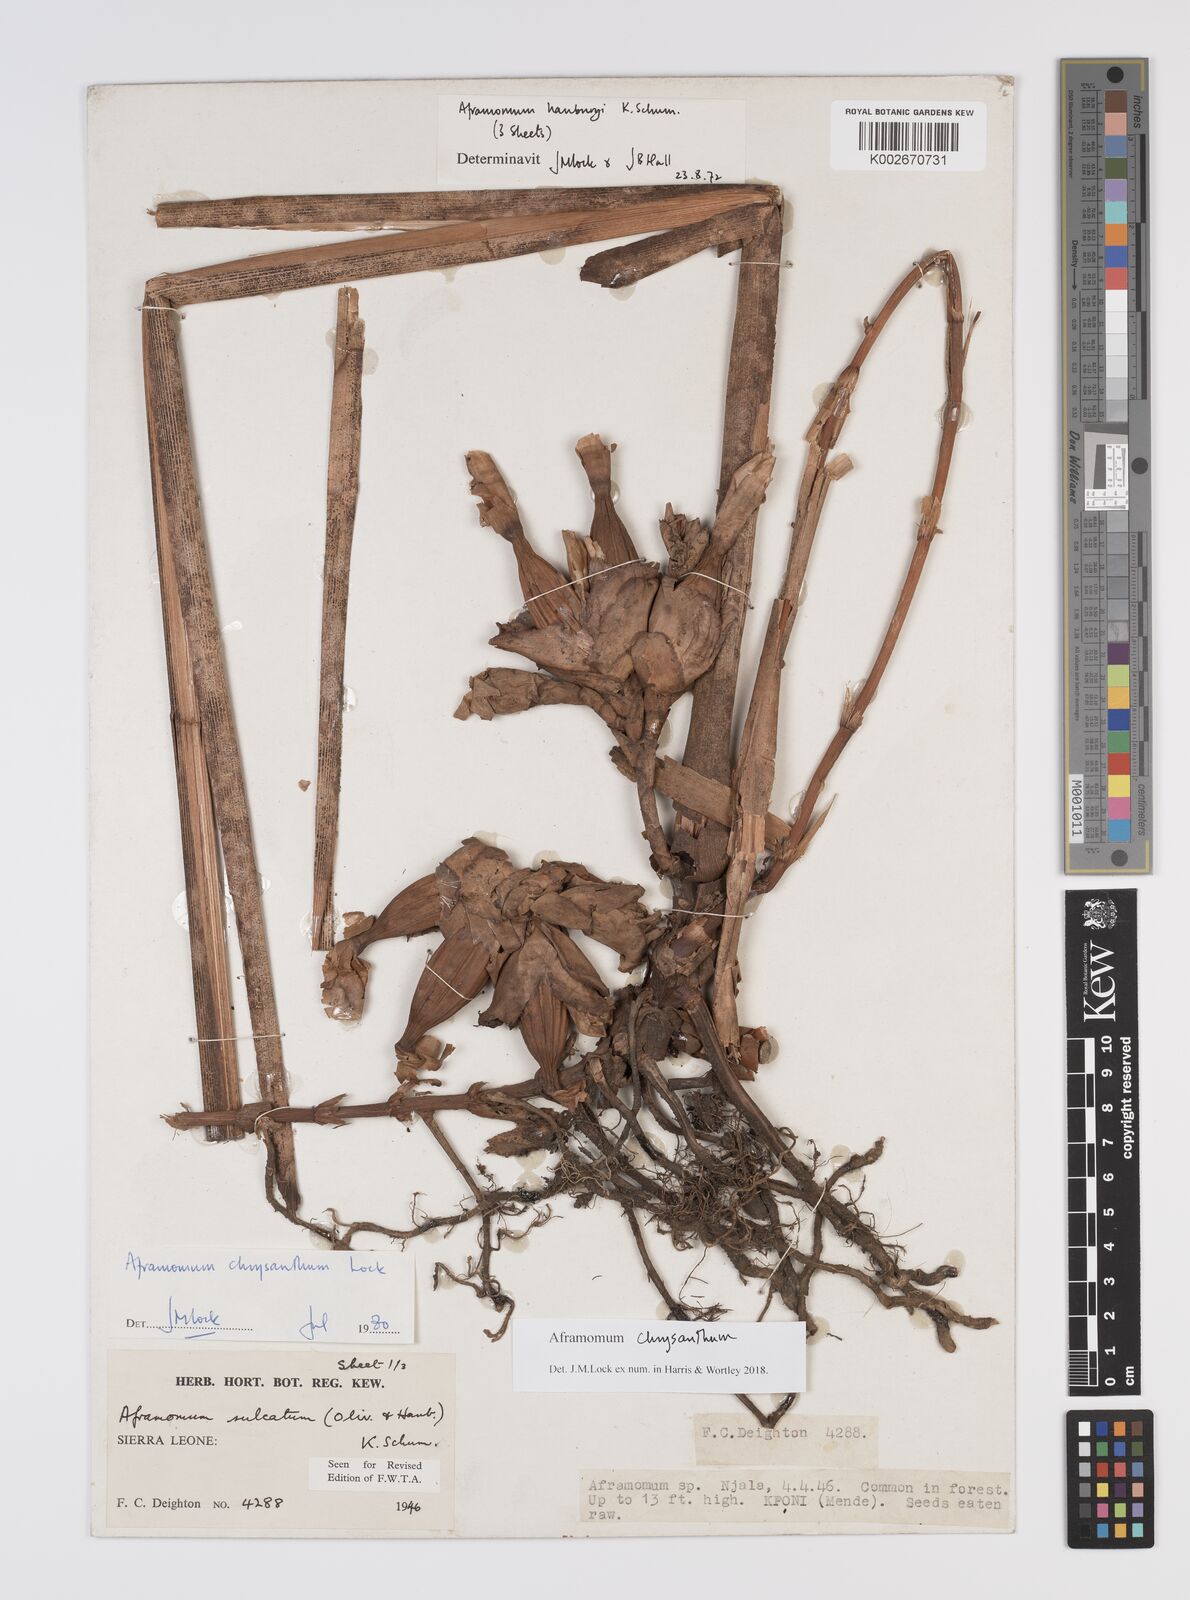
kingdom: Plantae
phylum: Tracheophyta
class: Liliopsida
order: Zingiberales
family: Zingiberaceae
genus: Aframomum
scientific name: Aframomum chrysanthum
